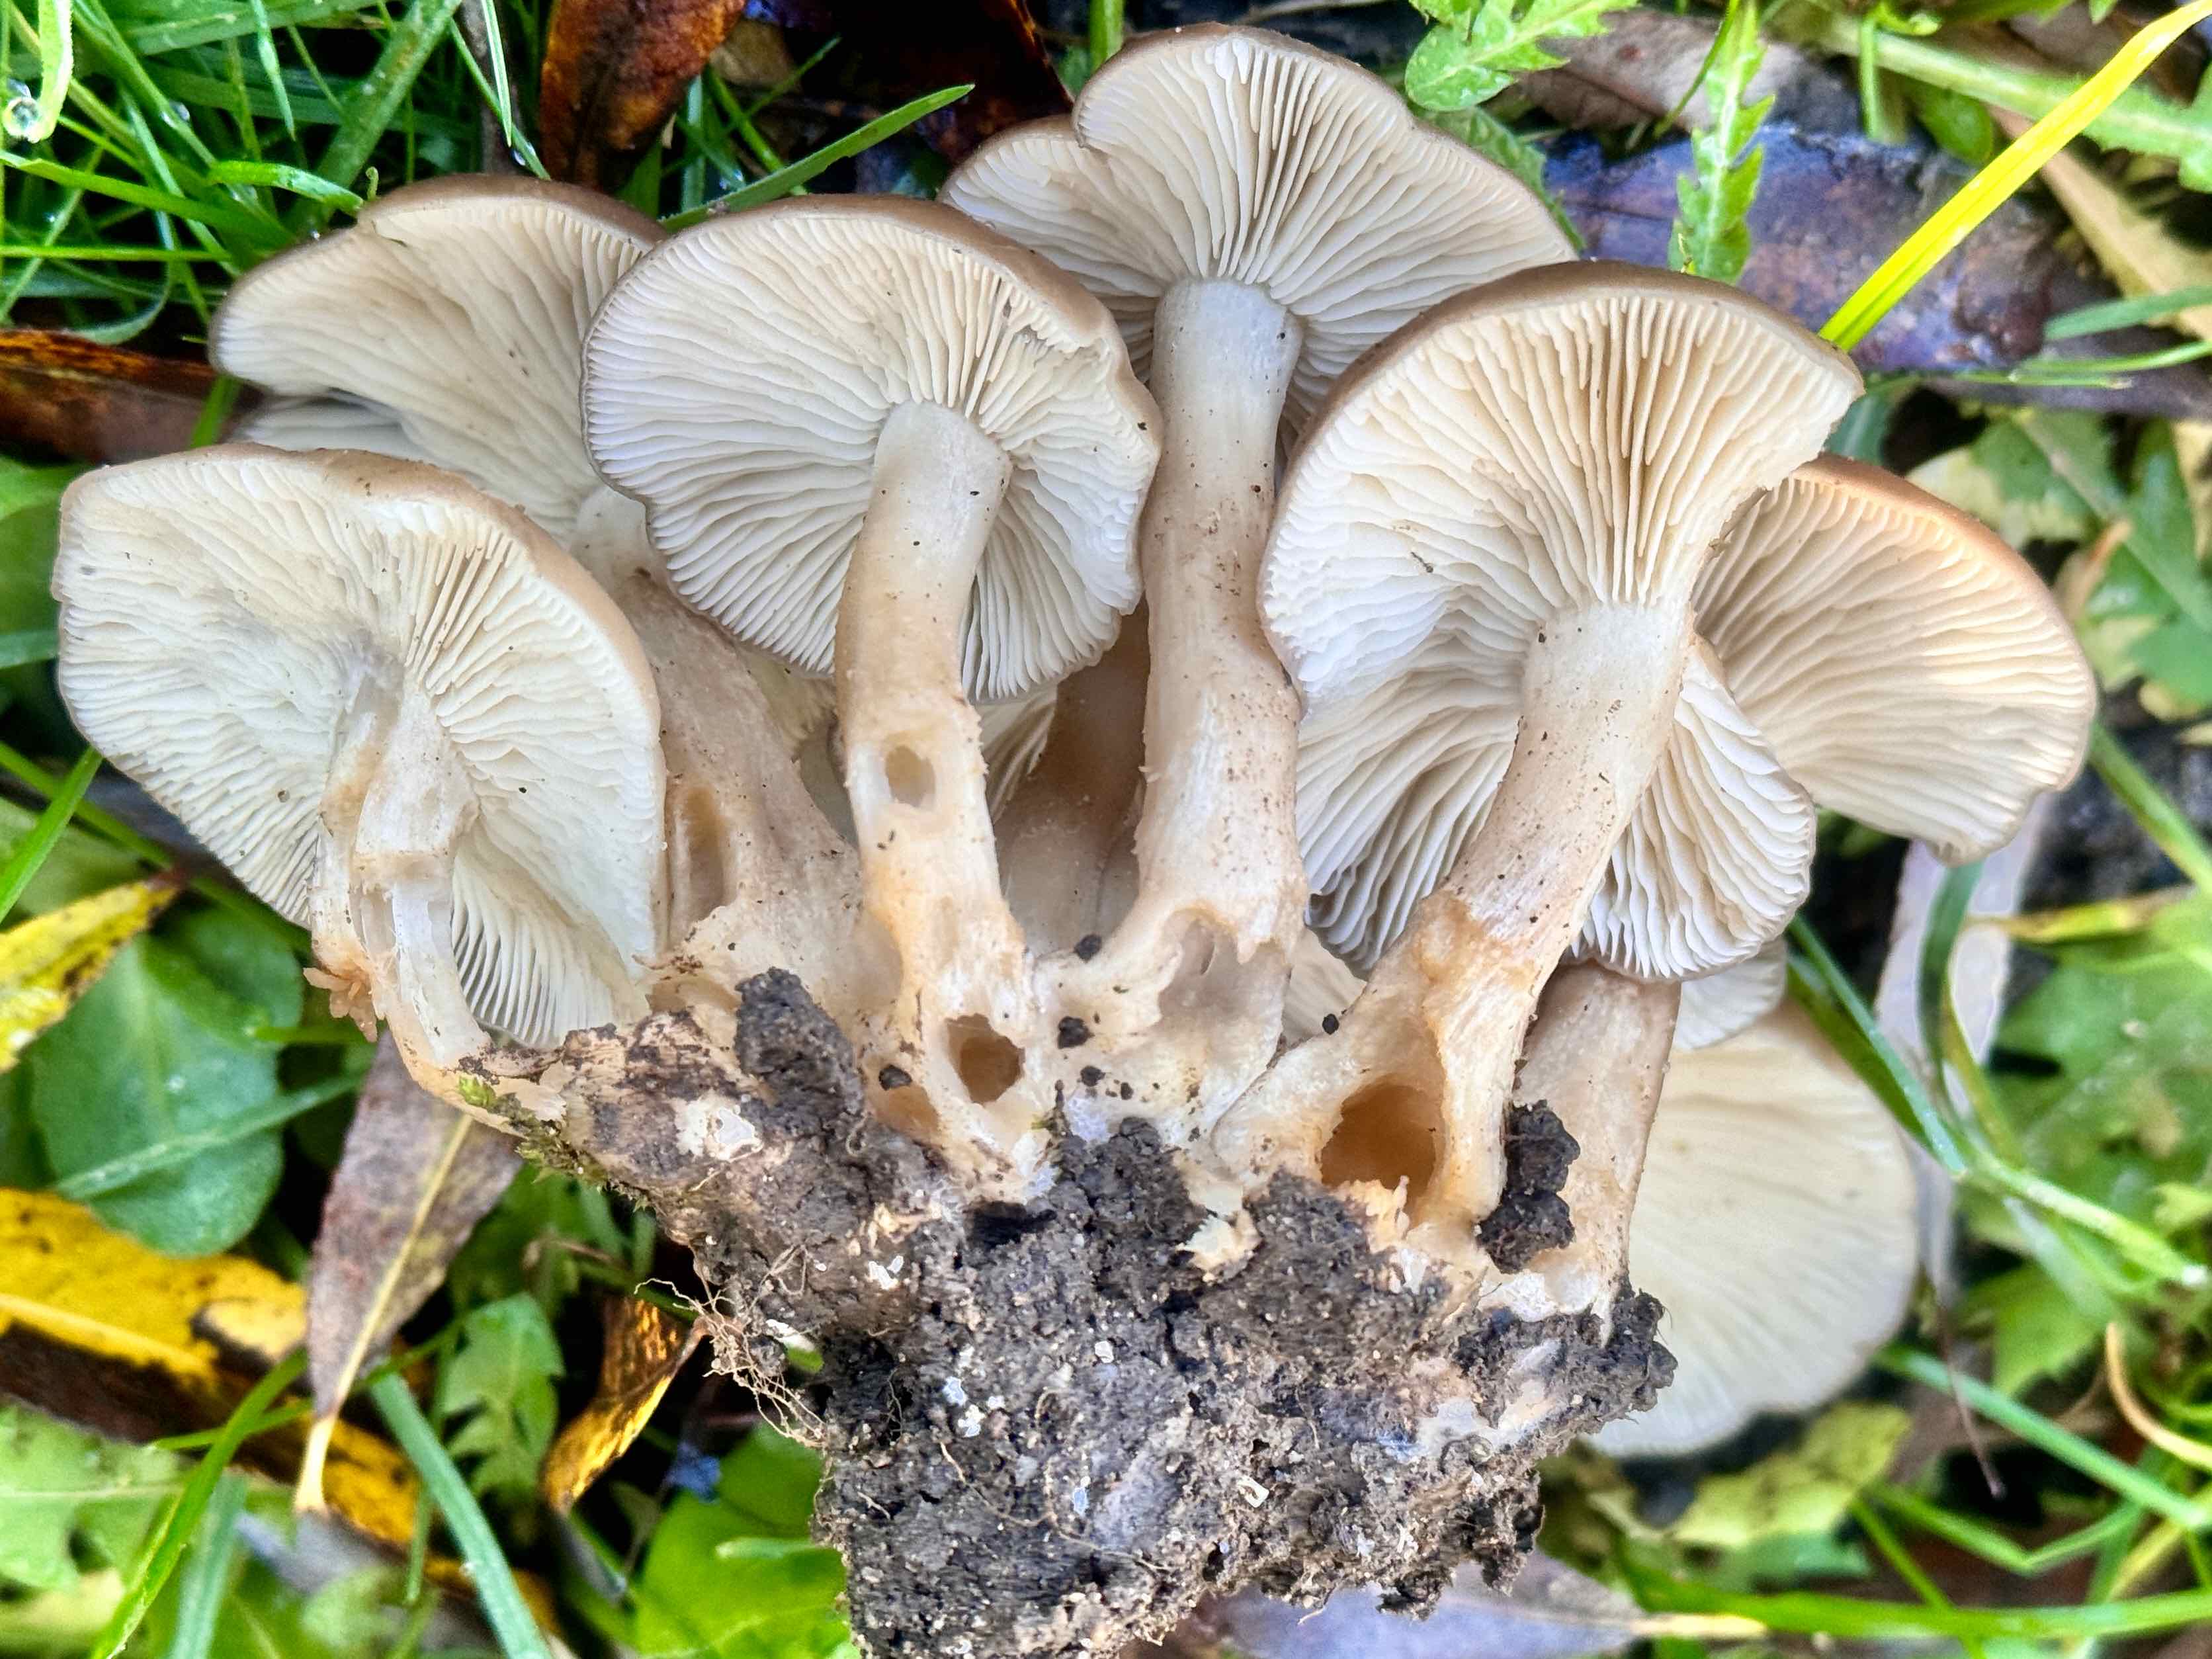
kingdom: Fungi
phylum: Basidiomycota
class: Agaricomycetes
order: Agaricales
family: Lyophyllaceae
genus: Lyophyllum
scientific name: Lyophyllum decastes
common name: røggrå gråblad
